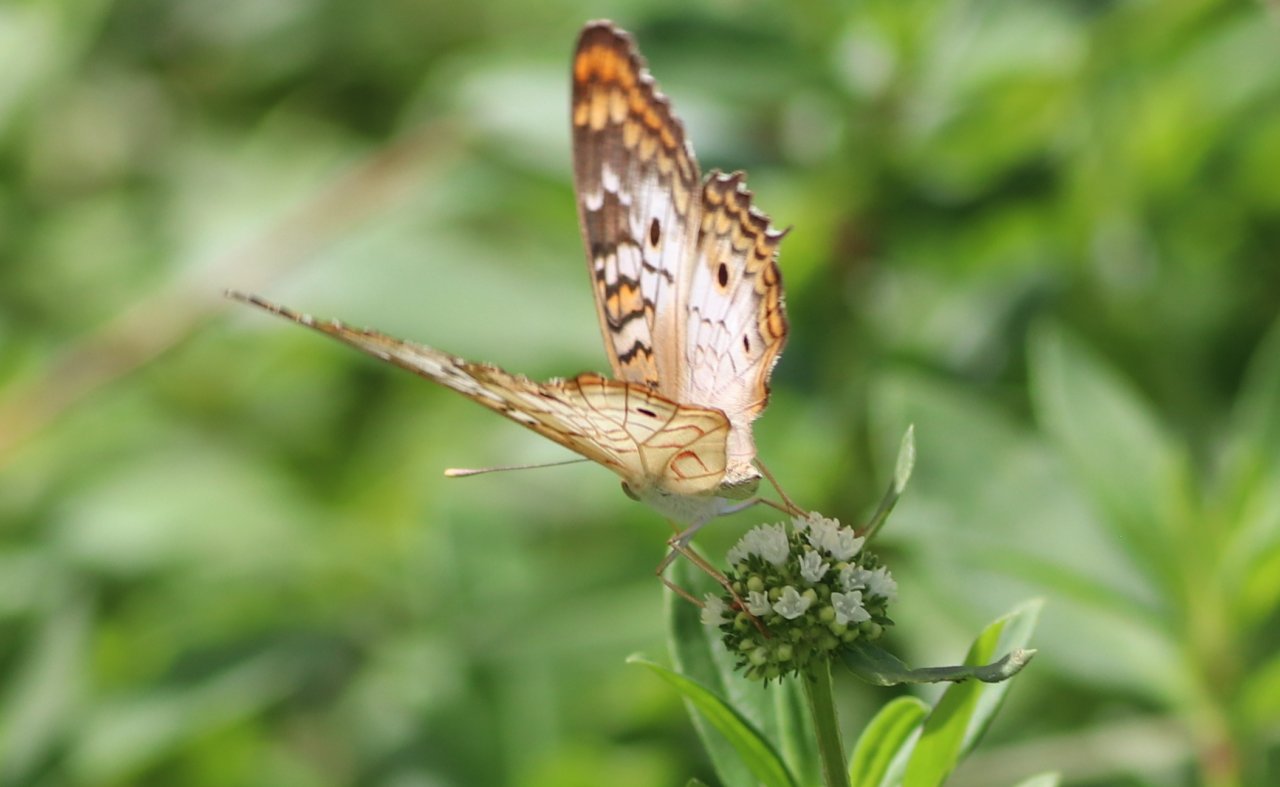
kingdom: Animalia
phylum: Arthropoda
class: Insecta
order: Lepidoptera
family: Nymphalidae
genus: Anartia
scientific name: Anartia jatrophae
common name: White Peacock
